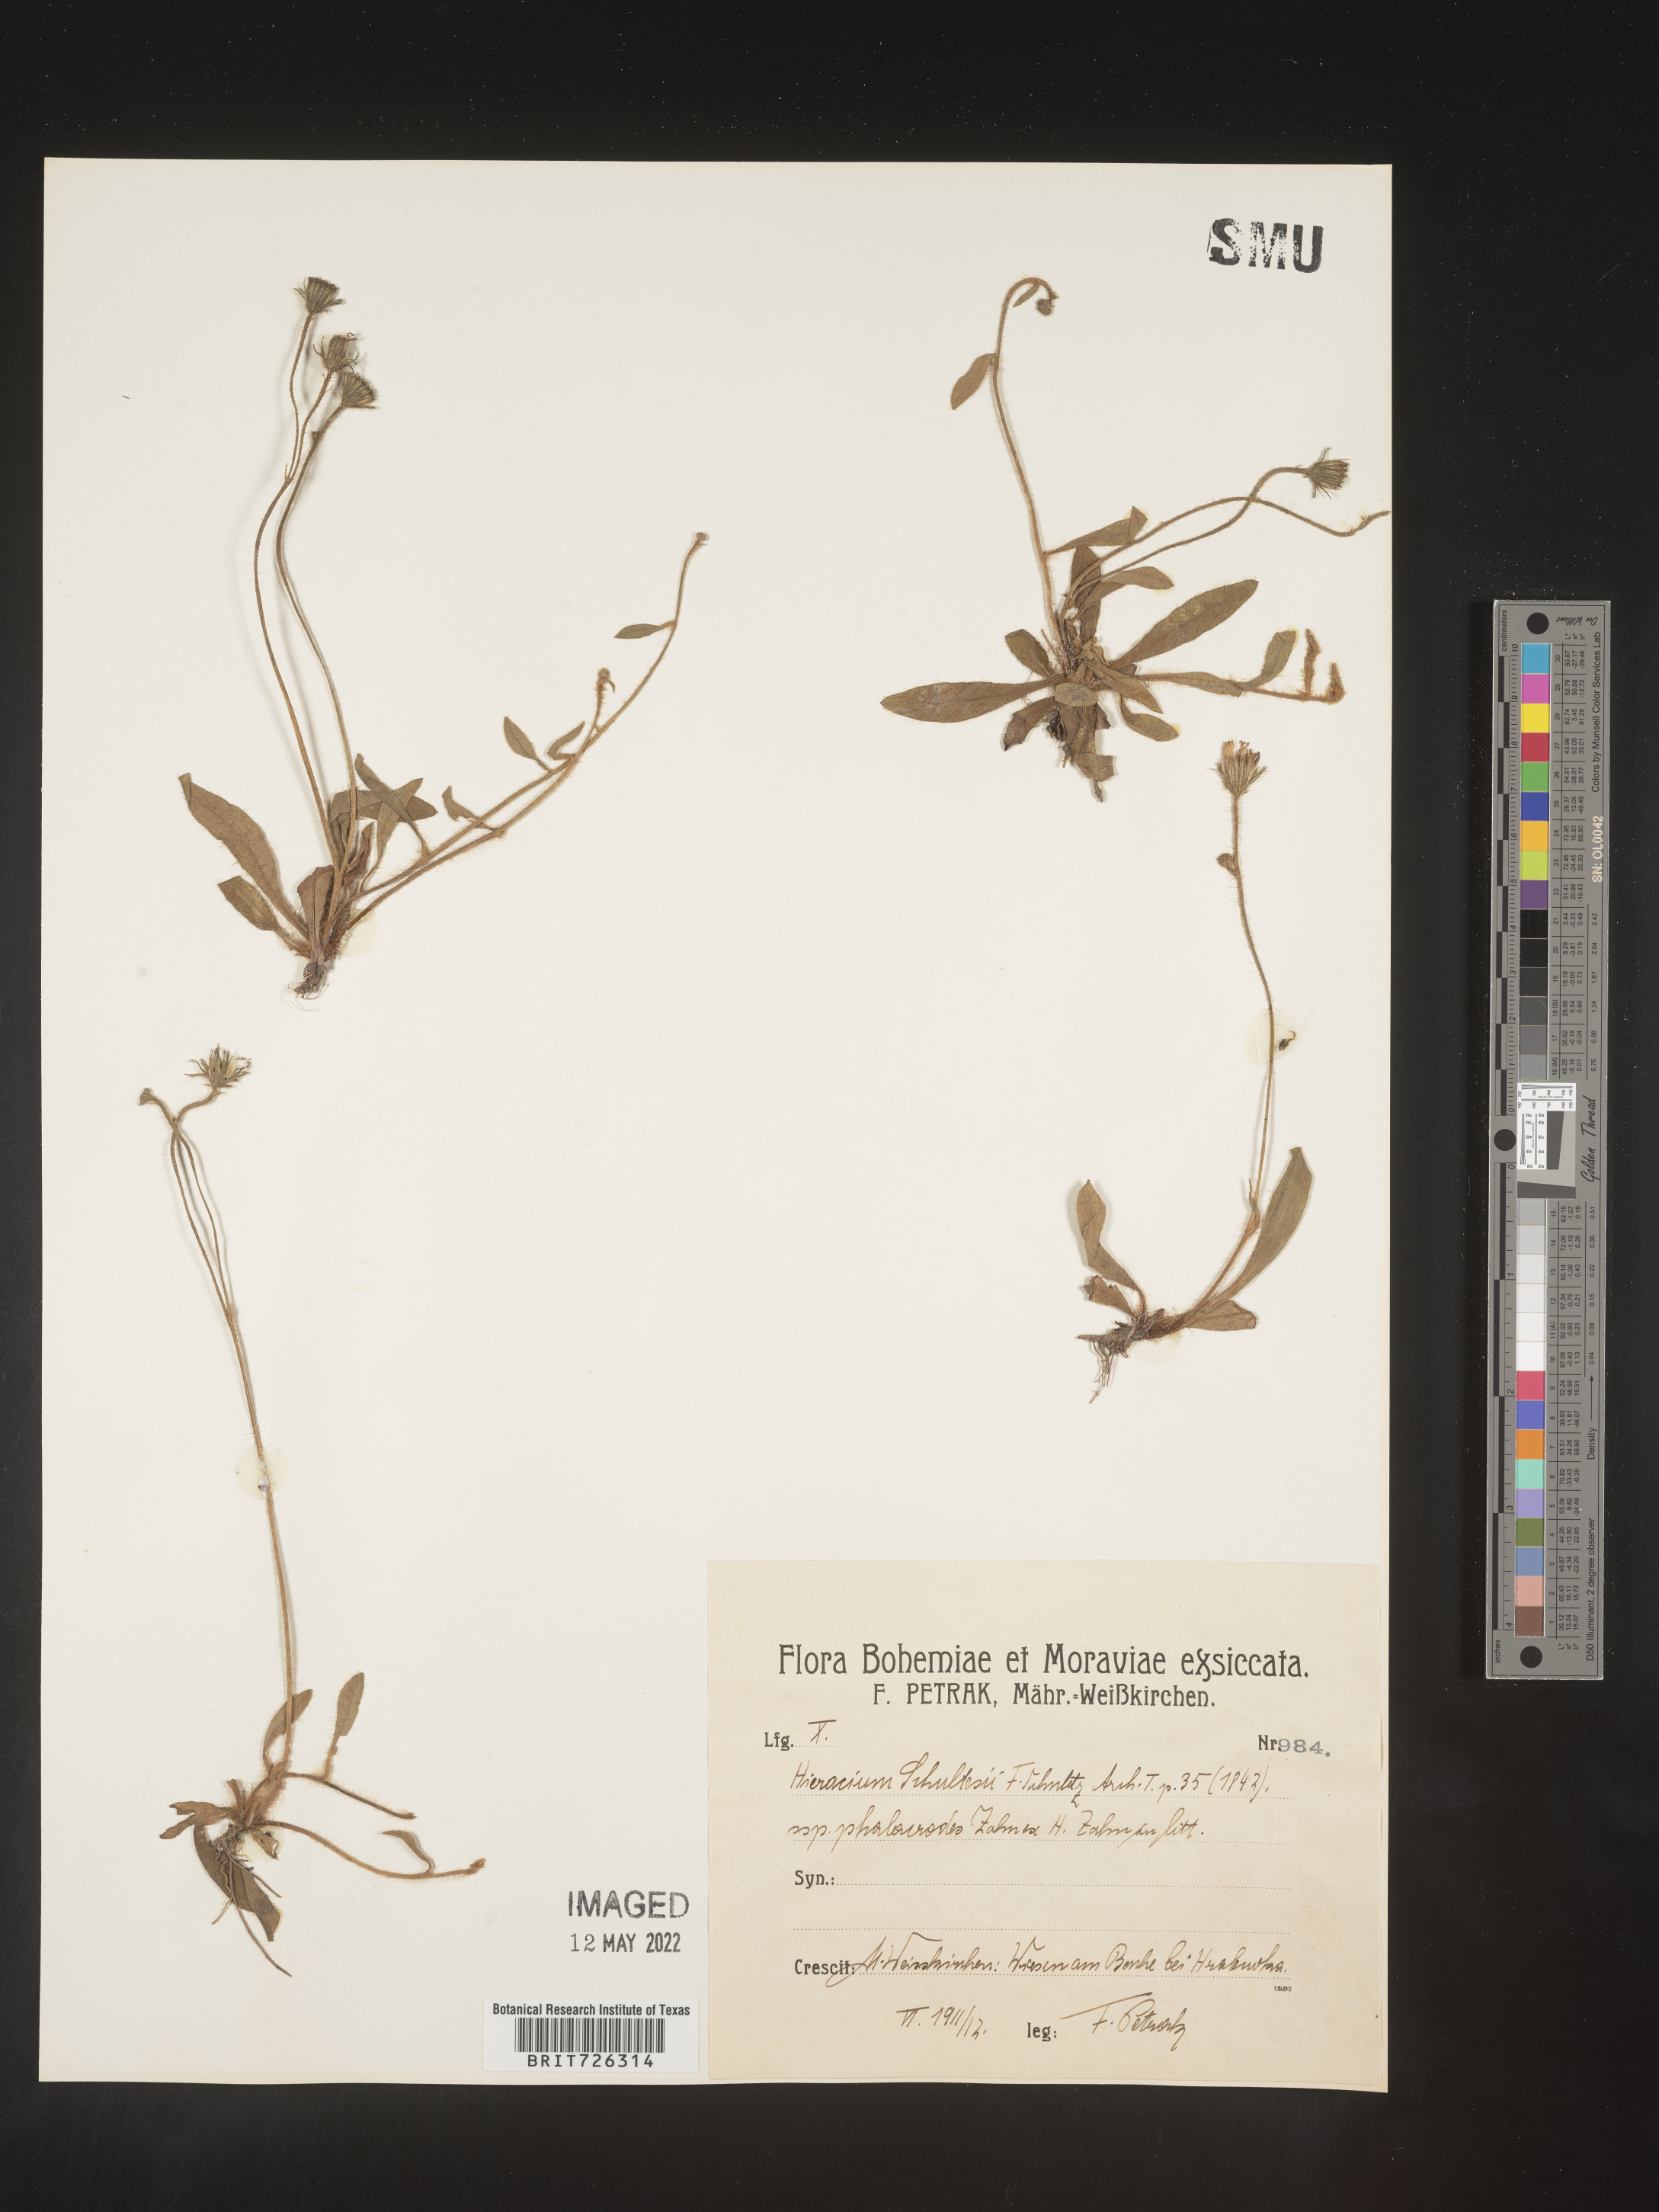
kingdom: Plantae
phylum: Tracheophyta
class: Magnoliopsida
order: Asterales
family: Asteraceae
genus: Hieracium
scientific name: Hieracium
